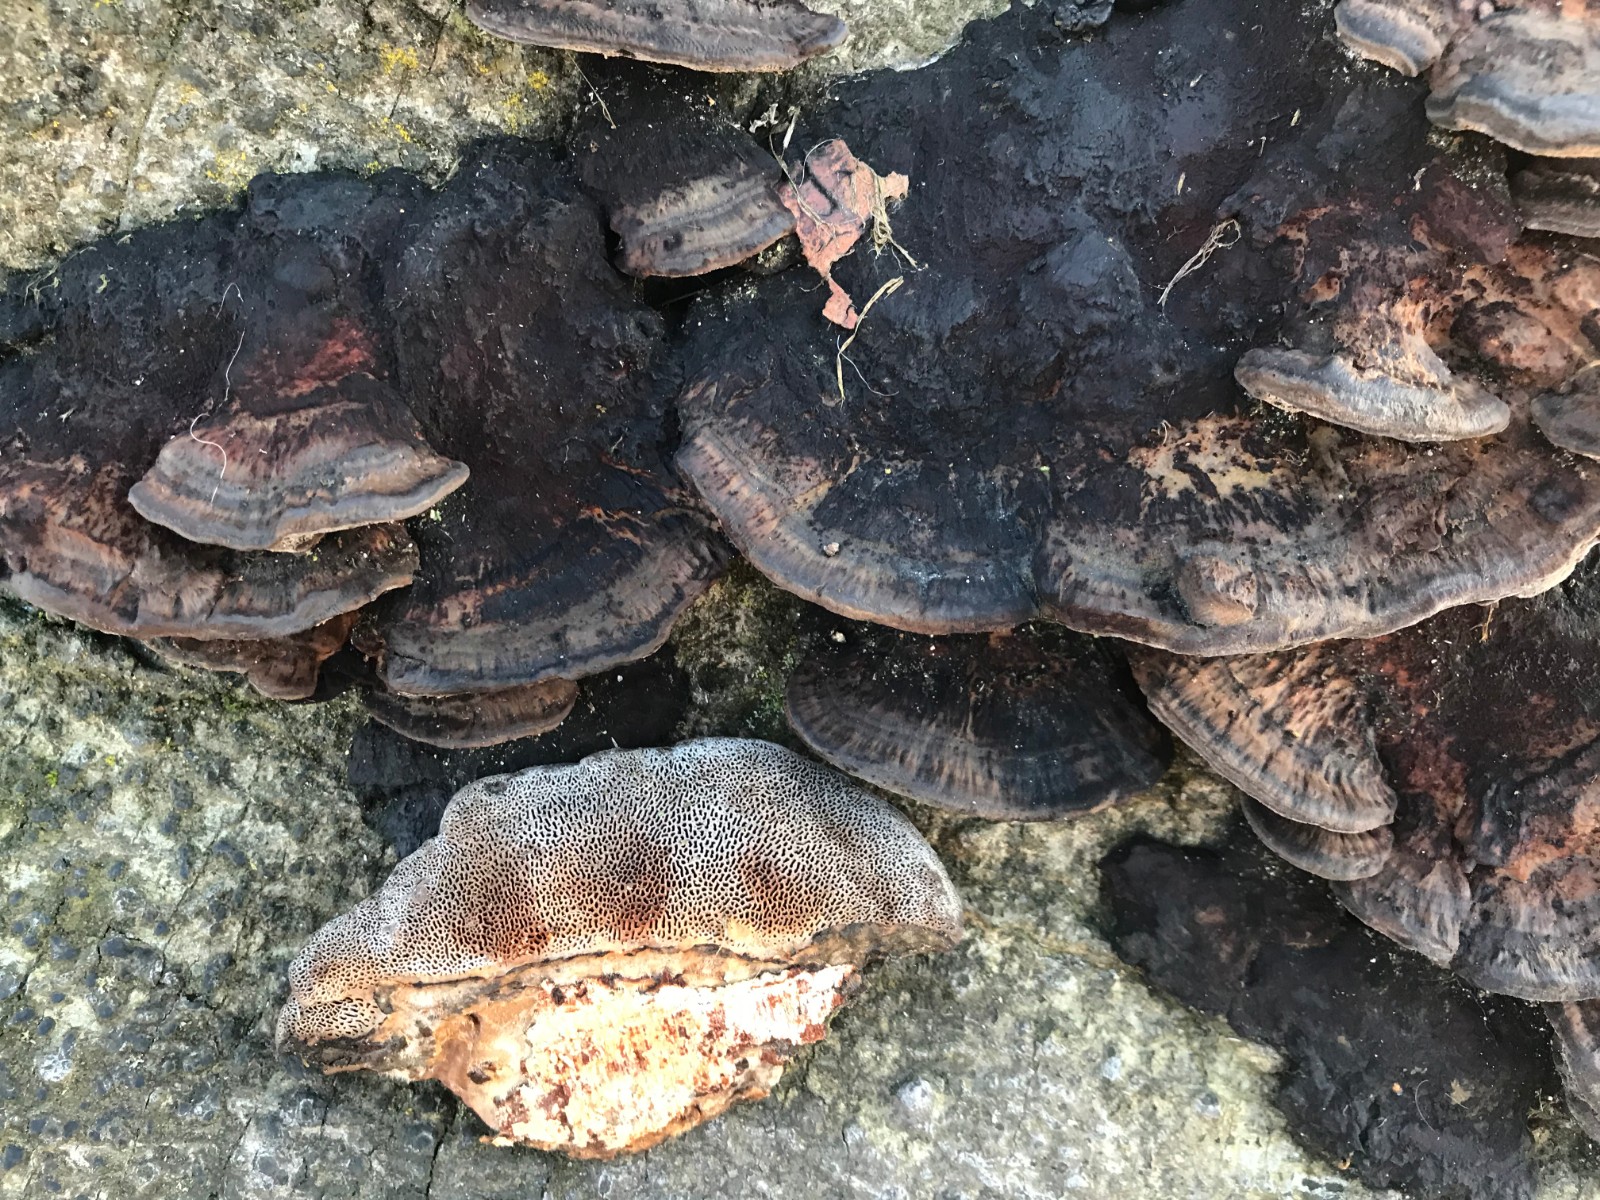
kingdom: Fungi
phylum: Basidiomycota
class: Agaricomycetes
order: Polyporales
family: Polyporaceae
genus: Daedaleopsis
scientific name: Daedaleopsis confragosa
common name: rødmende læderporesvamp
